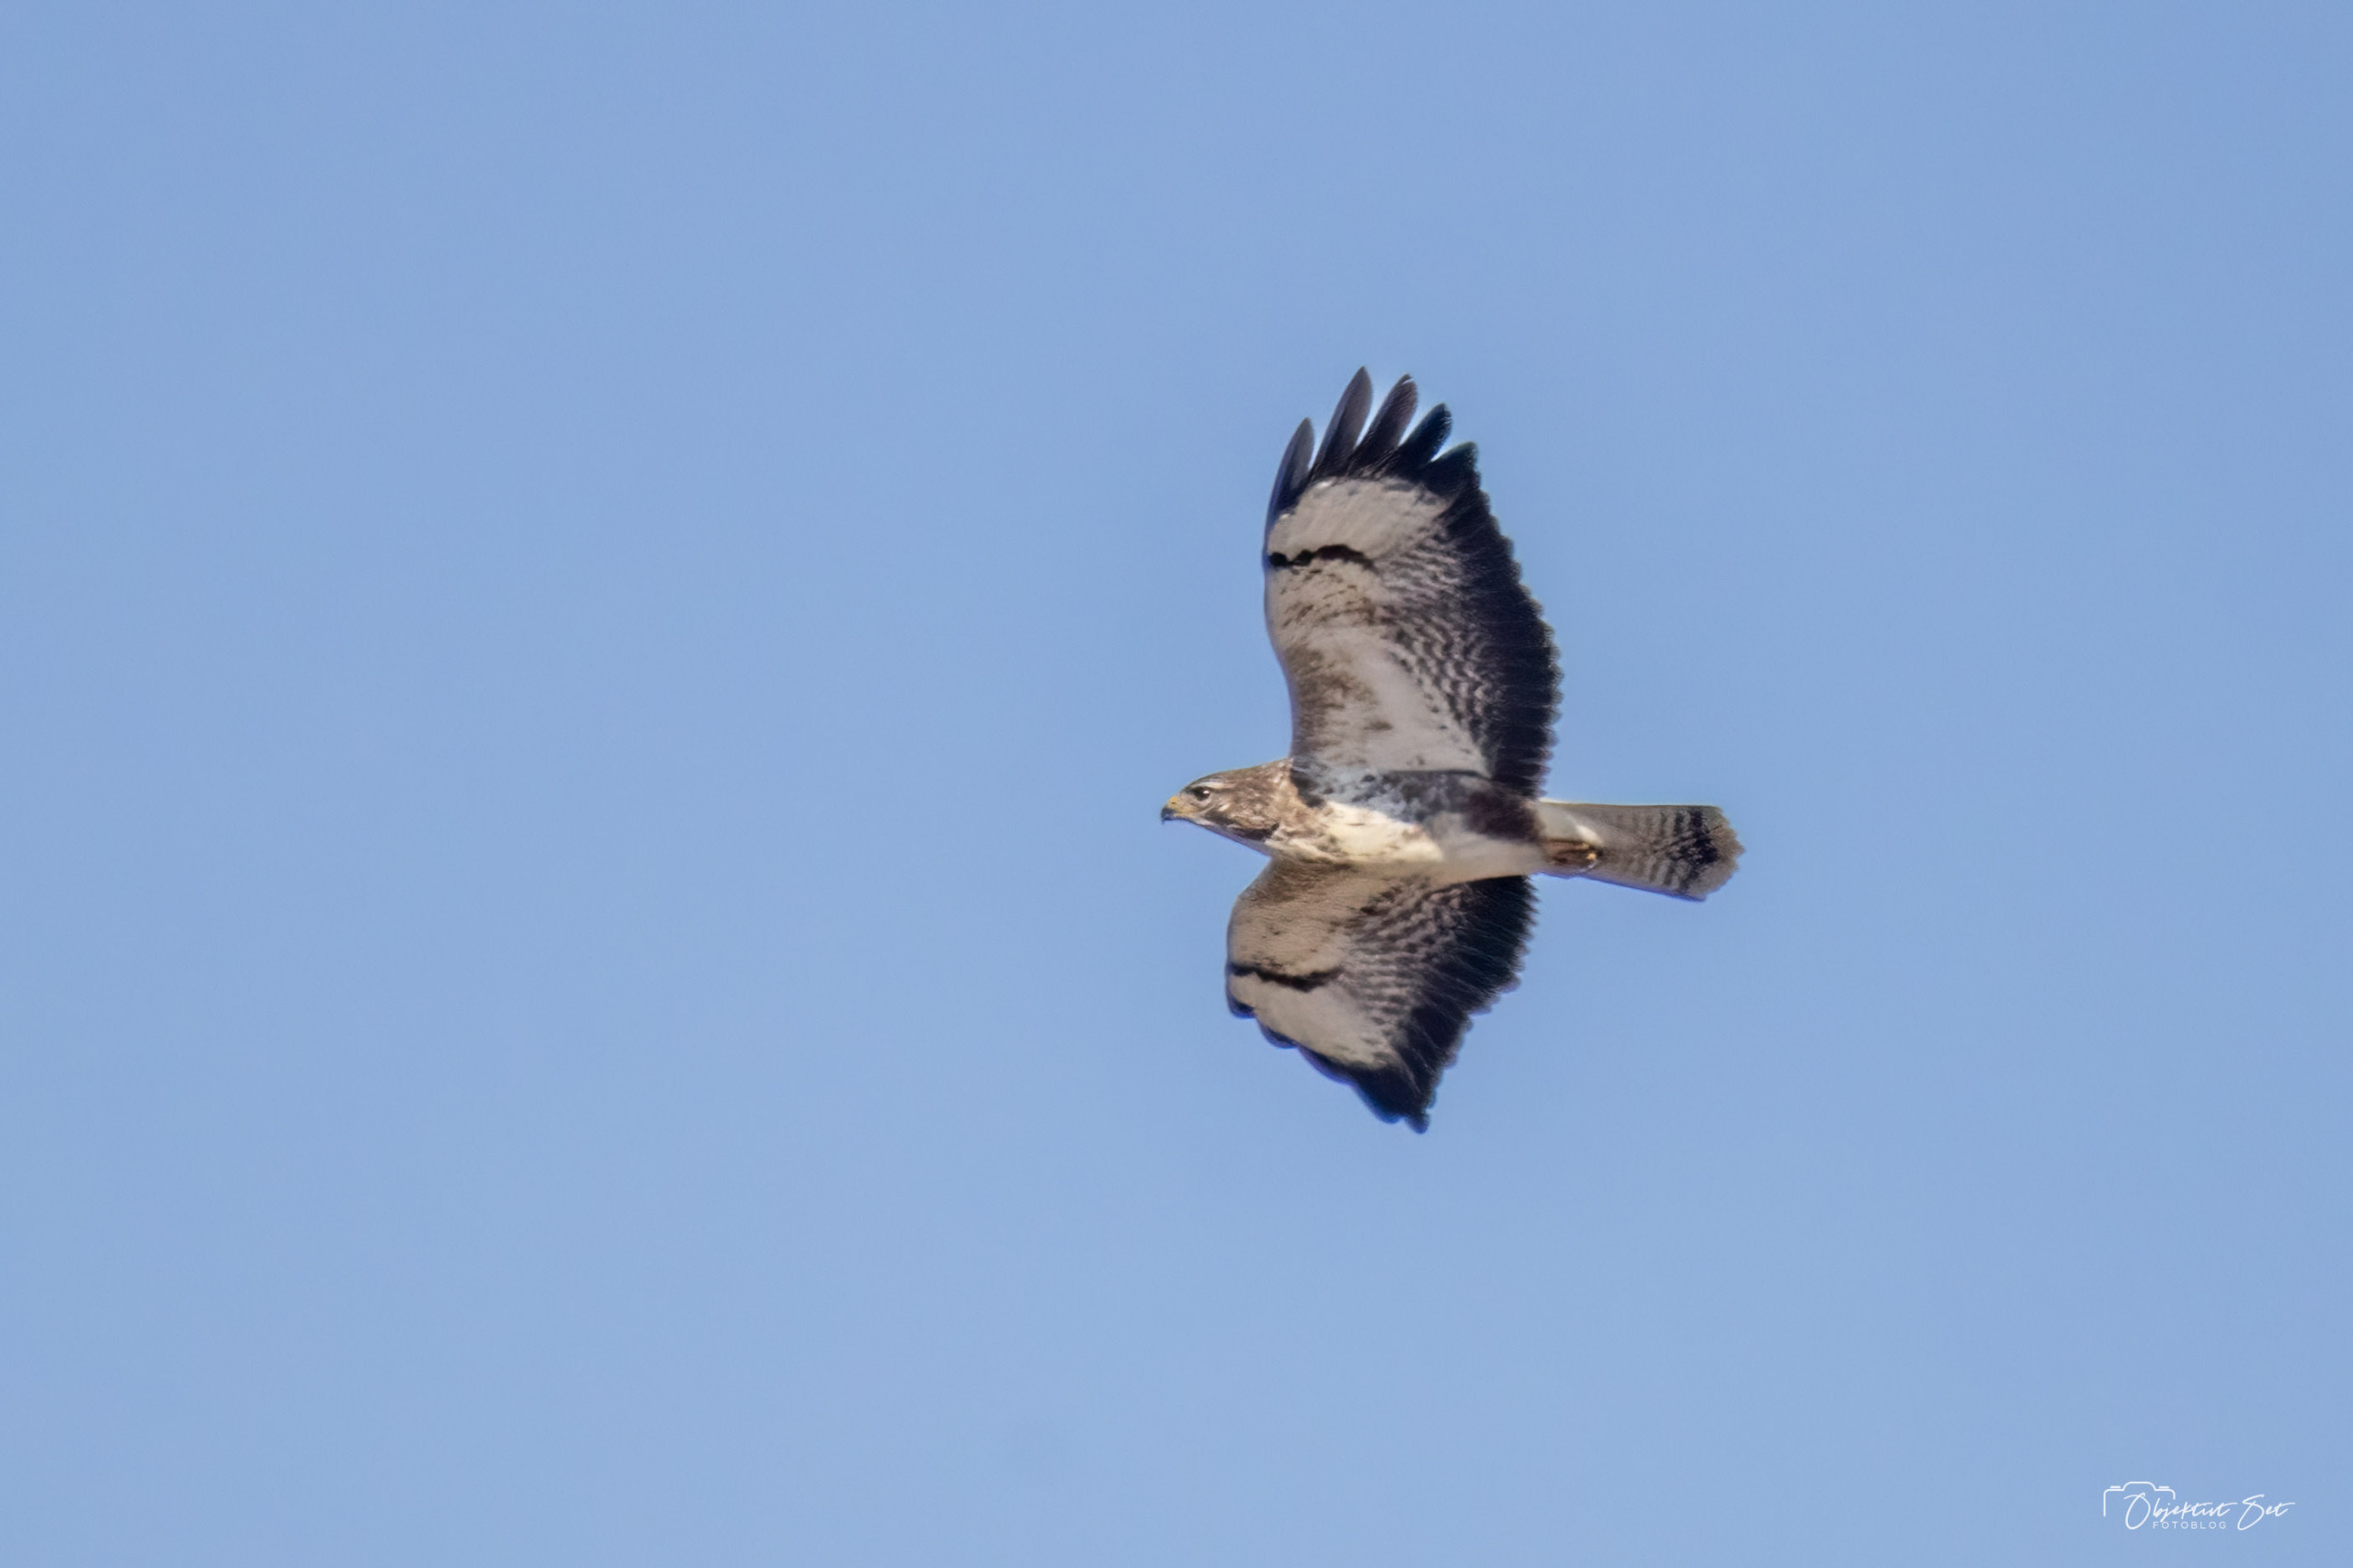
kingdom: Animalia
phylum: Chordata
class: Aves
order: Accipitriformes
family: Accipitridae
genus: Buteo
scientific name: Buteo buteo
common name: Musvåge
